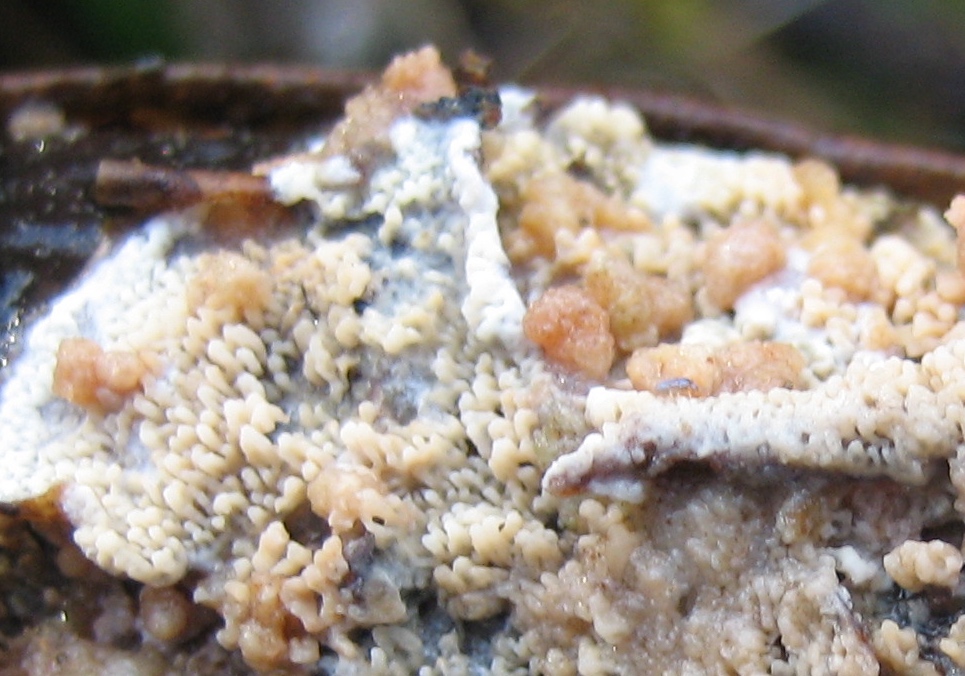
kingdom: Fungi
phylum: Basidiomycota
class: Tremellomycetes
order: Tremellales
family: Syzygosporaceae
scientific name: Syzygosporaceae
